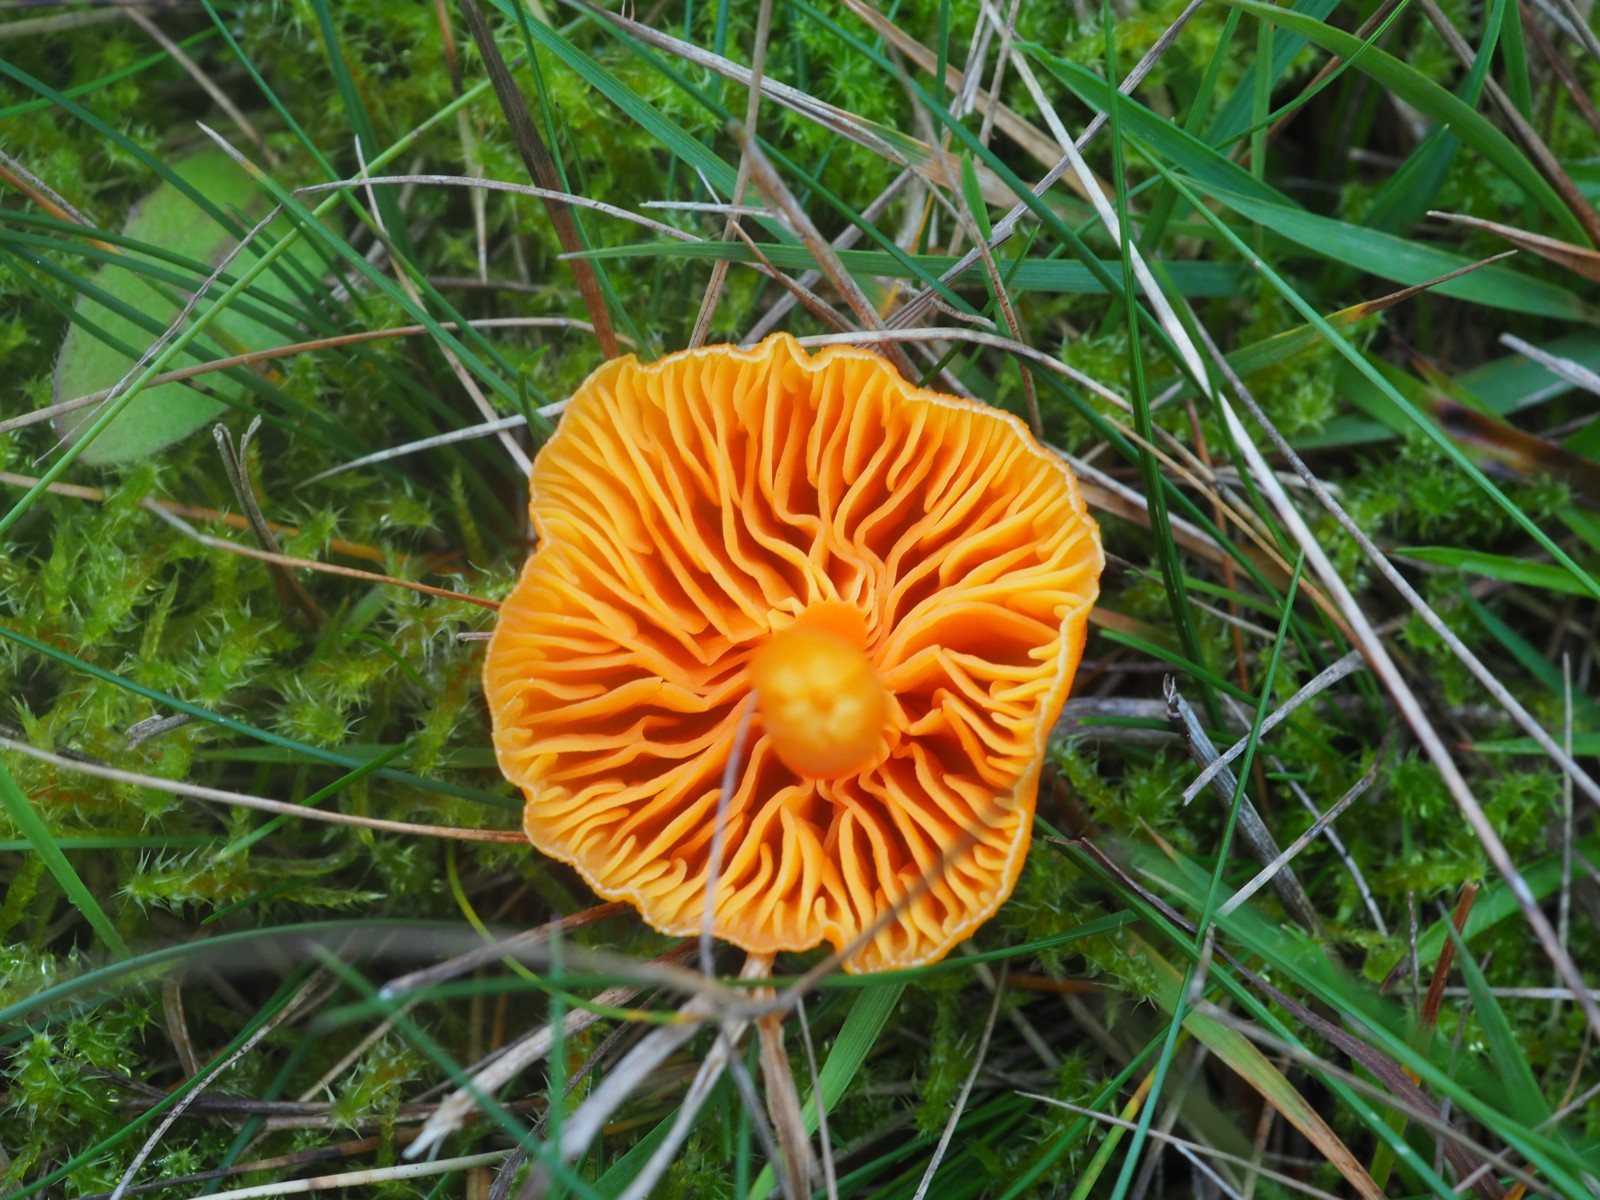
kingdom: Fungi
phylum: Basidiomycota
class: Agaricomycetes
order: Agaricales
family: Hygrophoraceae
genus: Hygrocybe
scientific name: Hygrocybe coccinea
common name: cinnober-vokshat
